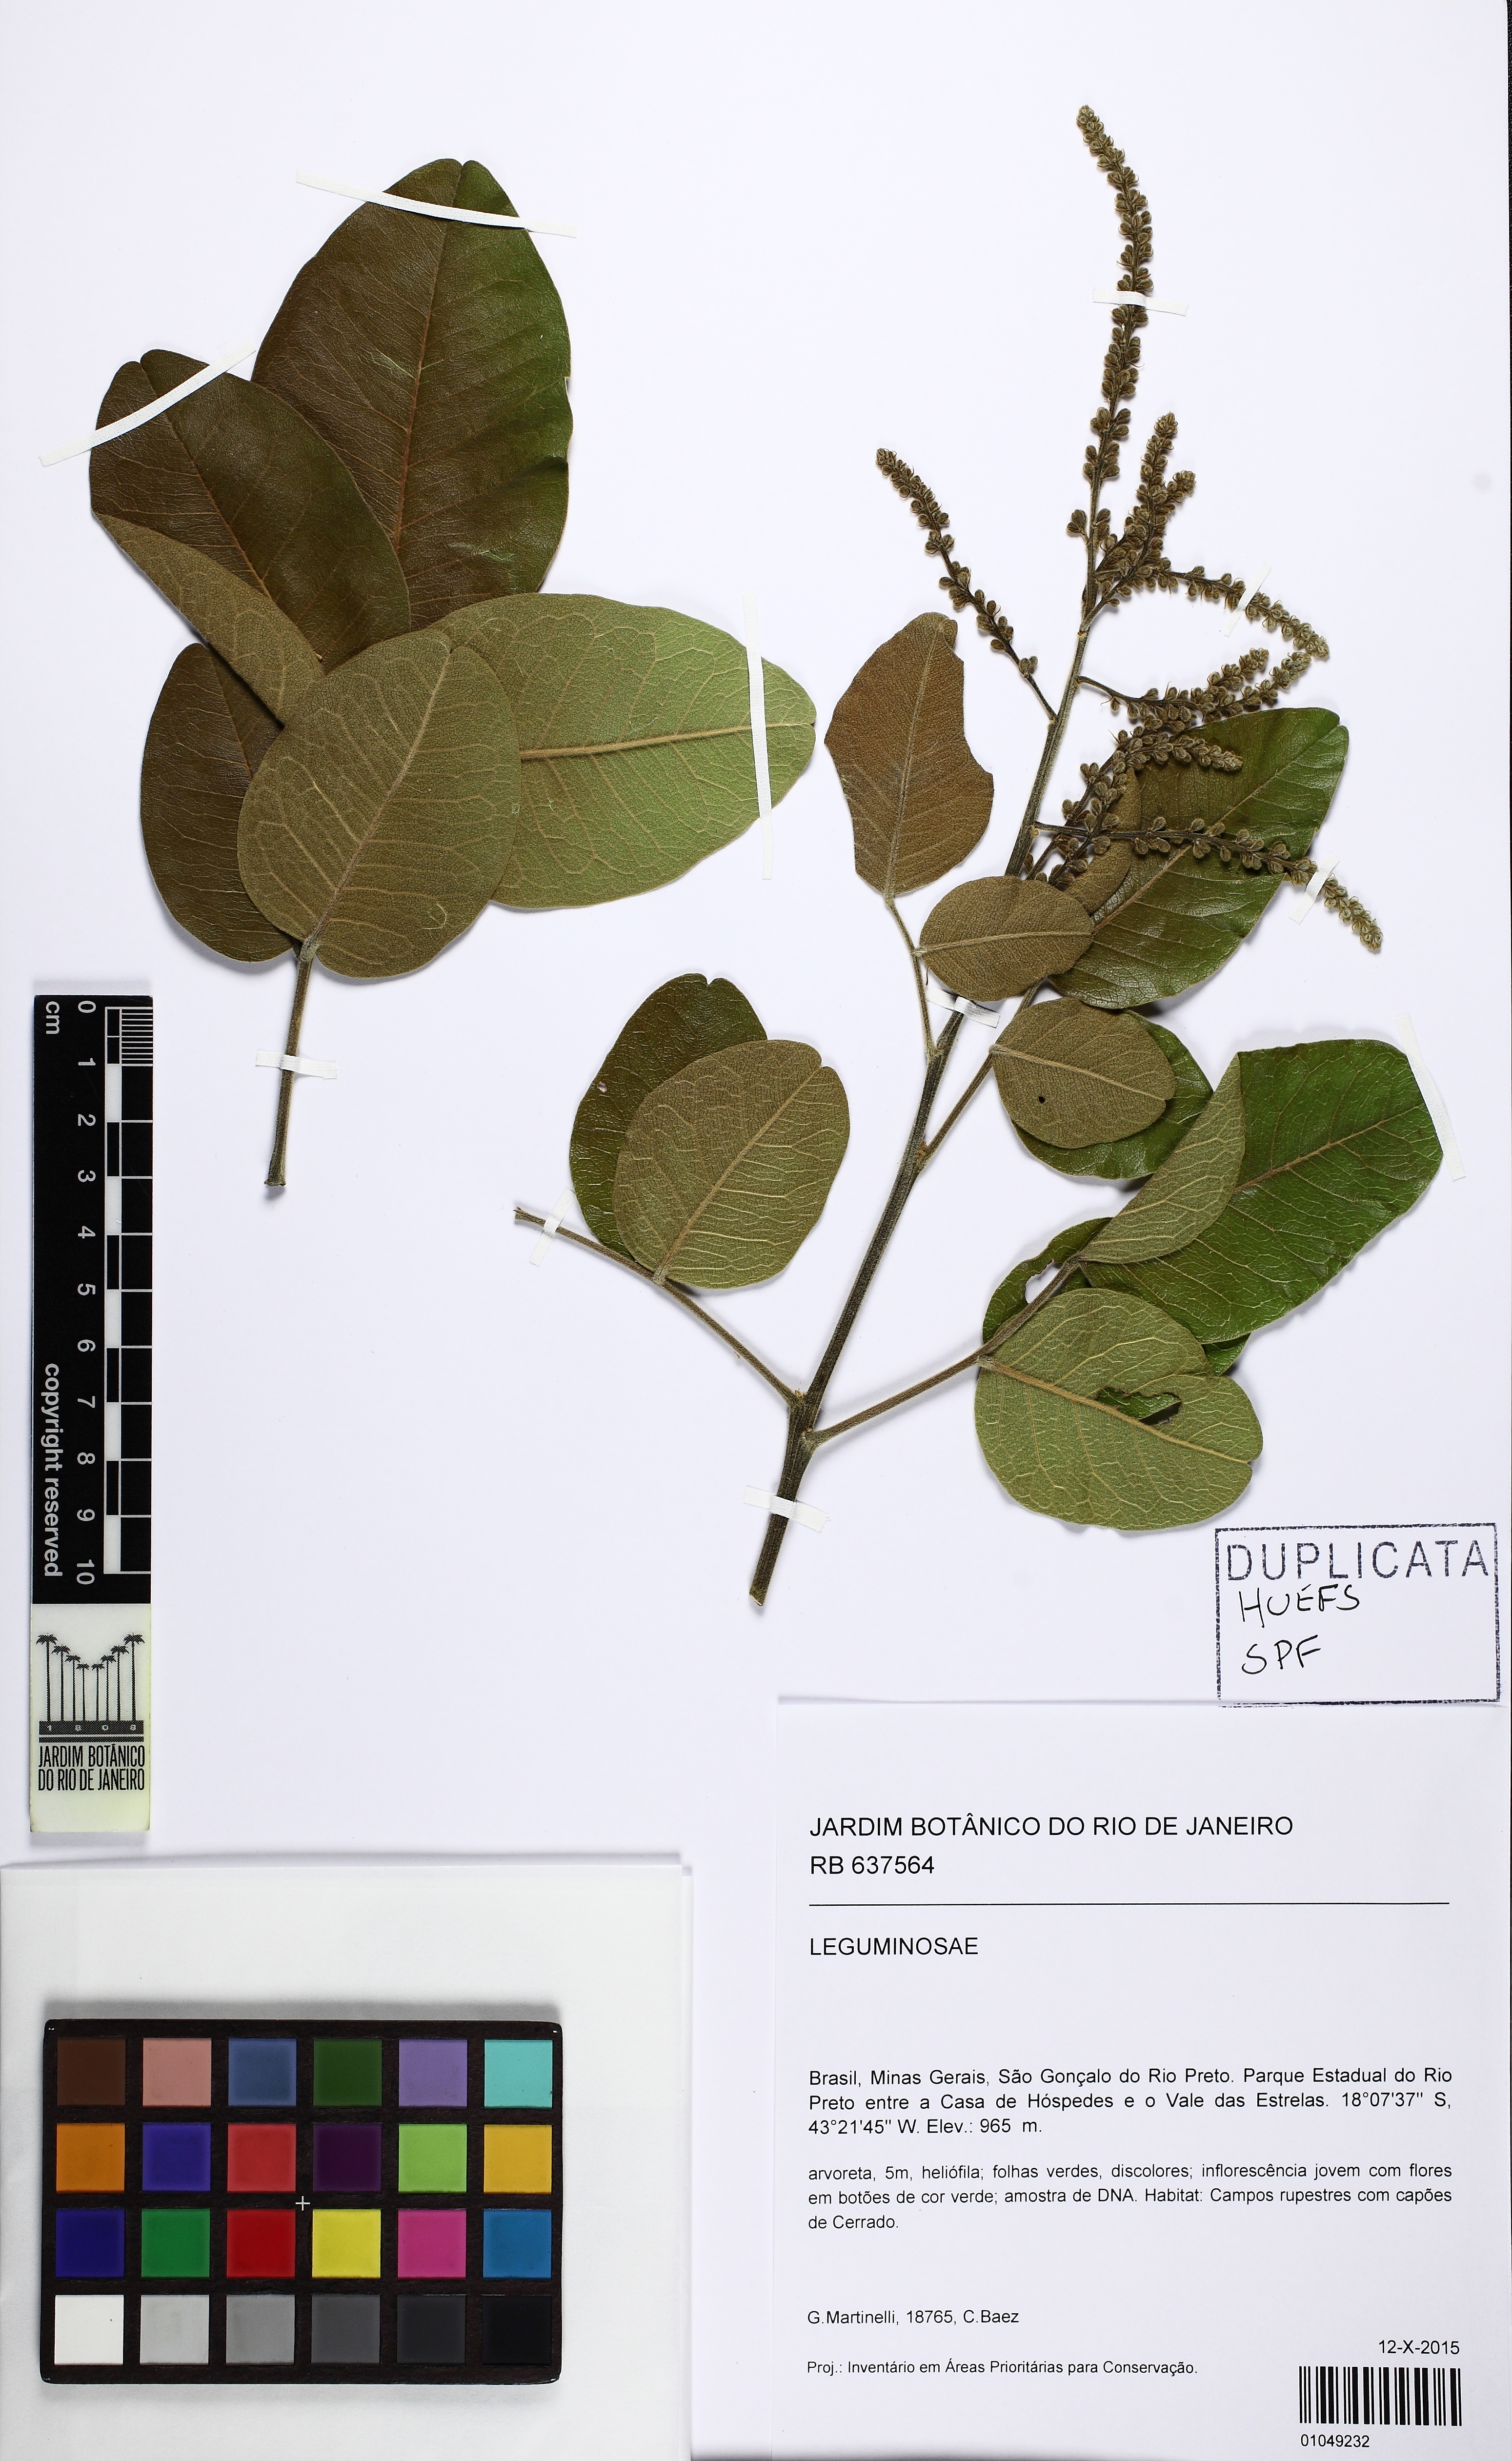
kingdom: Plantae
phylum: Tracheophyta
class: Magnoliopsida
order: Fabales
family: Fabaceae
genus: Leptolobium
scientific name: Leptolobium dasycarpum
